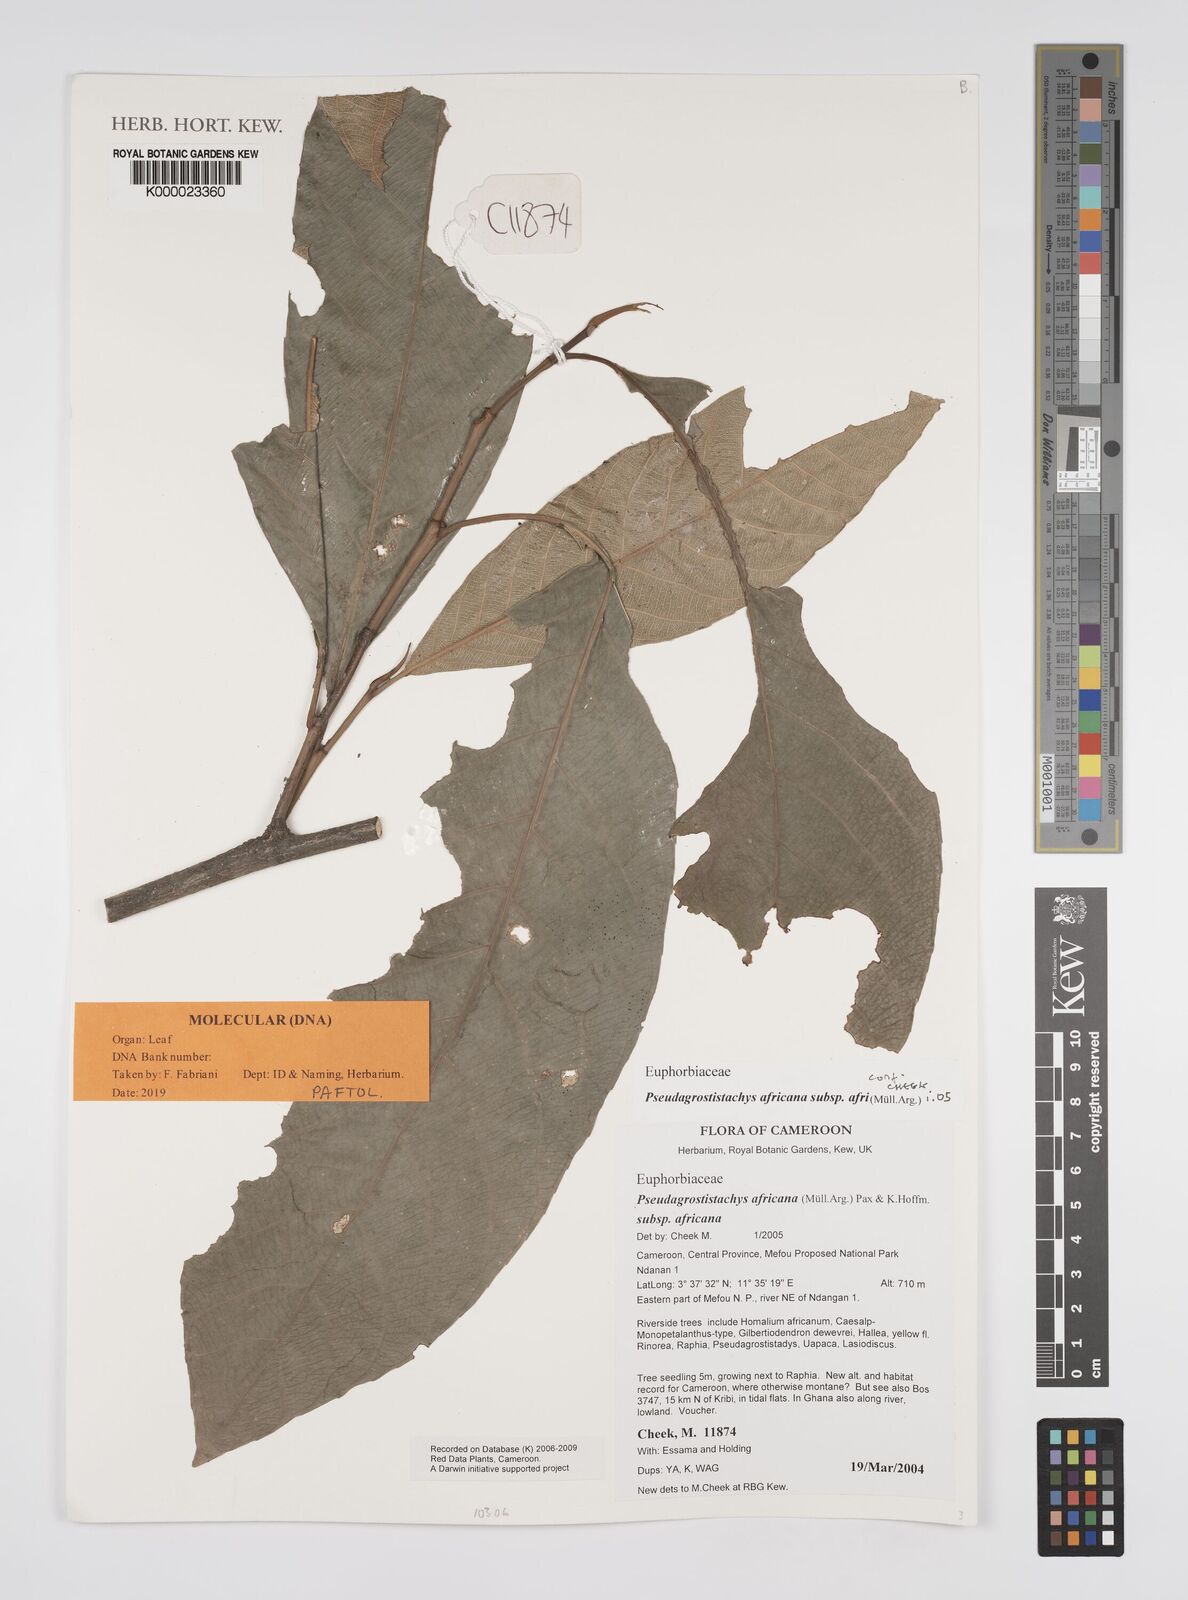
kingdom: Plantae
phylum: Tracheophyta
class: Magnoliopsida
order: Malpighiales
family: Euphorbiaceae
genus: Pseudagrostistachys
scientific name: Pseudagrostistachys
